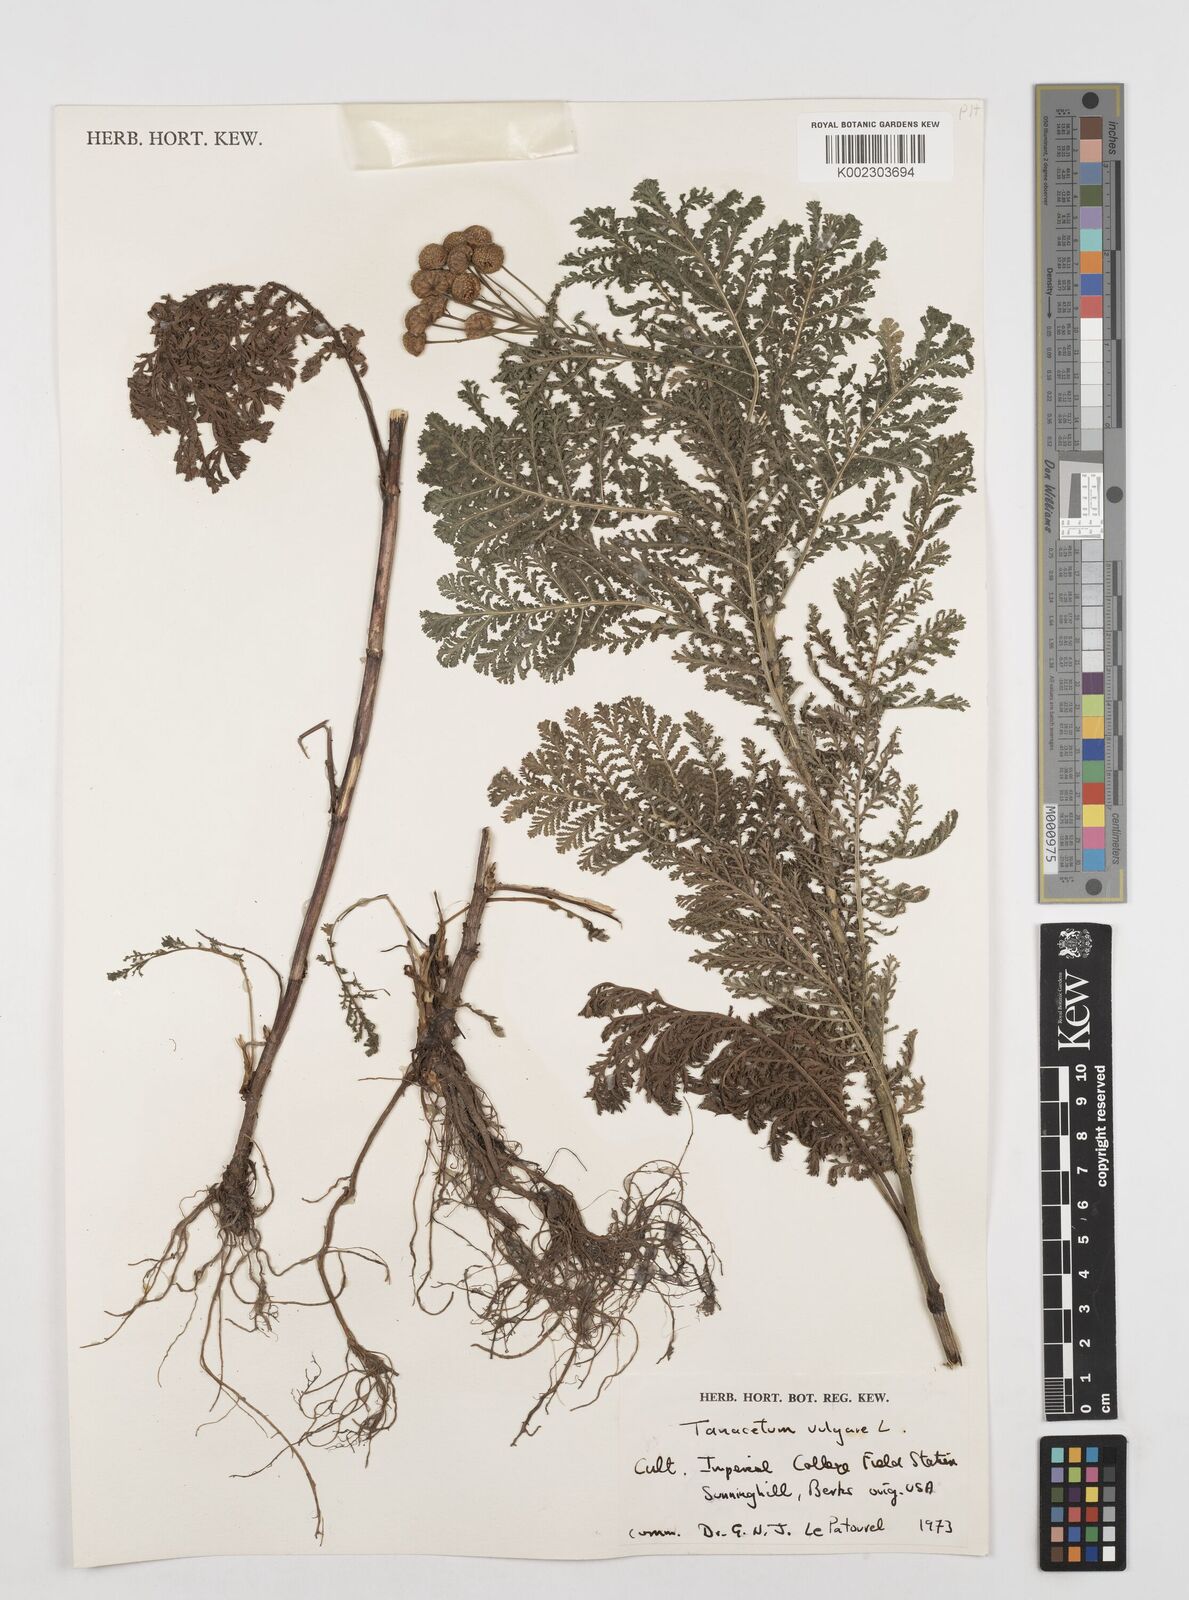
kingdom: Plantae
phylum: Tracheophyta
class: Magnoliopsida
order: Asterales
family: Asteraceae
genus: Tanacetum
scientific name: Tanacetum vulgare
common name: Common tansy
